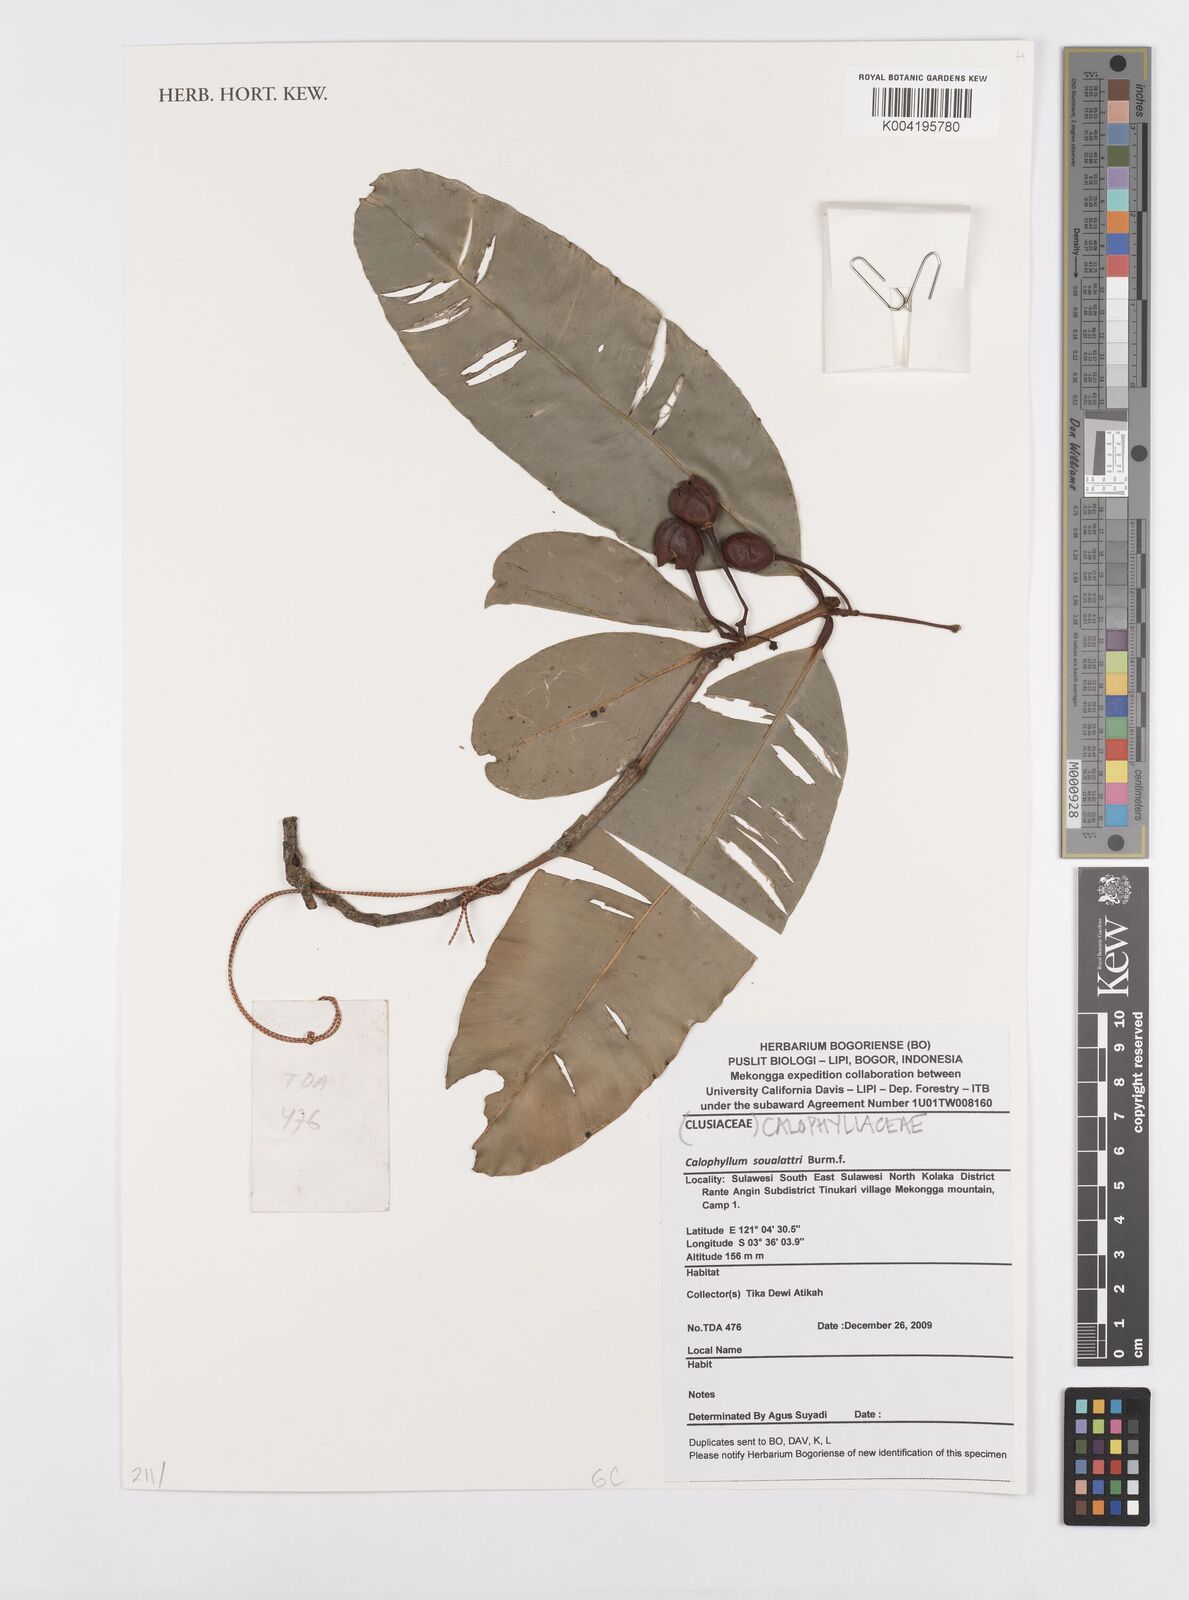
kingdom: Plantae
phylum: Tracheophyta
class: Magnoliopsida
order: Malpighiales
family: Calophyllaceae
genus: Calophyllum
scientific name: Calophyllum soulattri
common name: Bitangoor boonot
